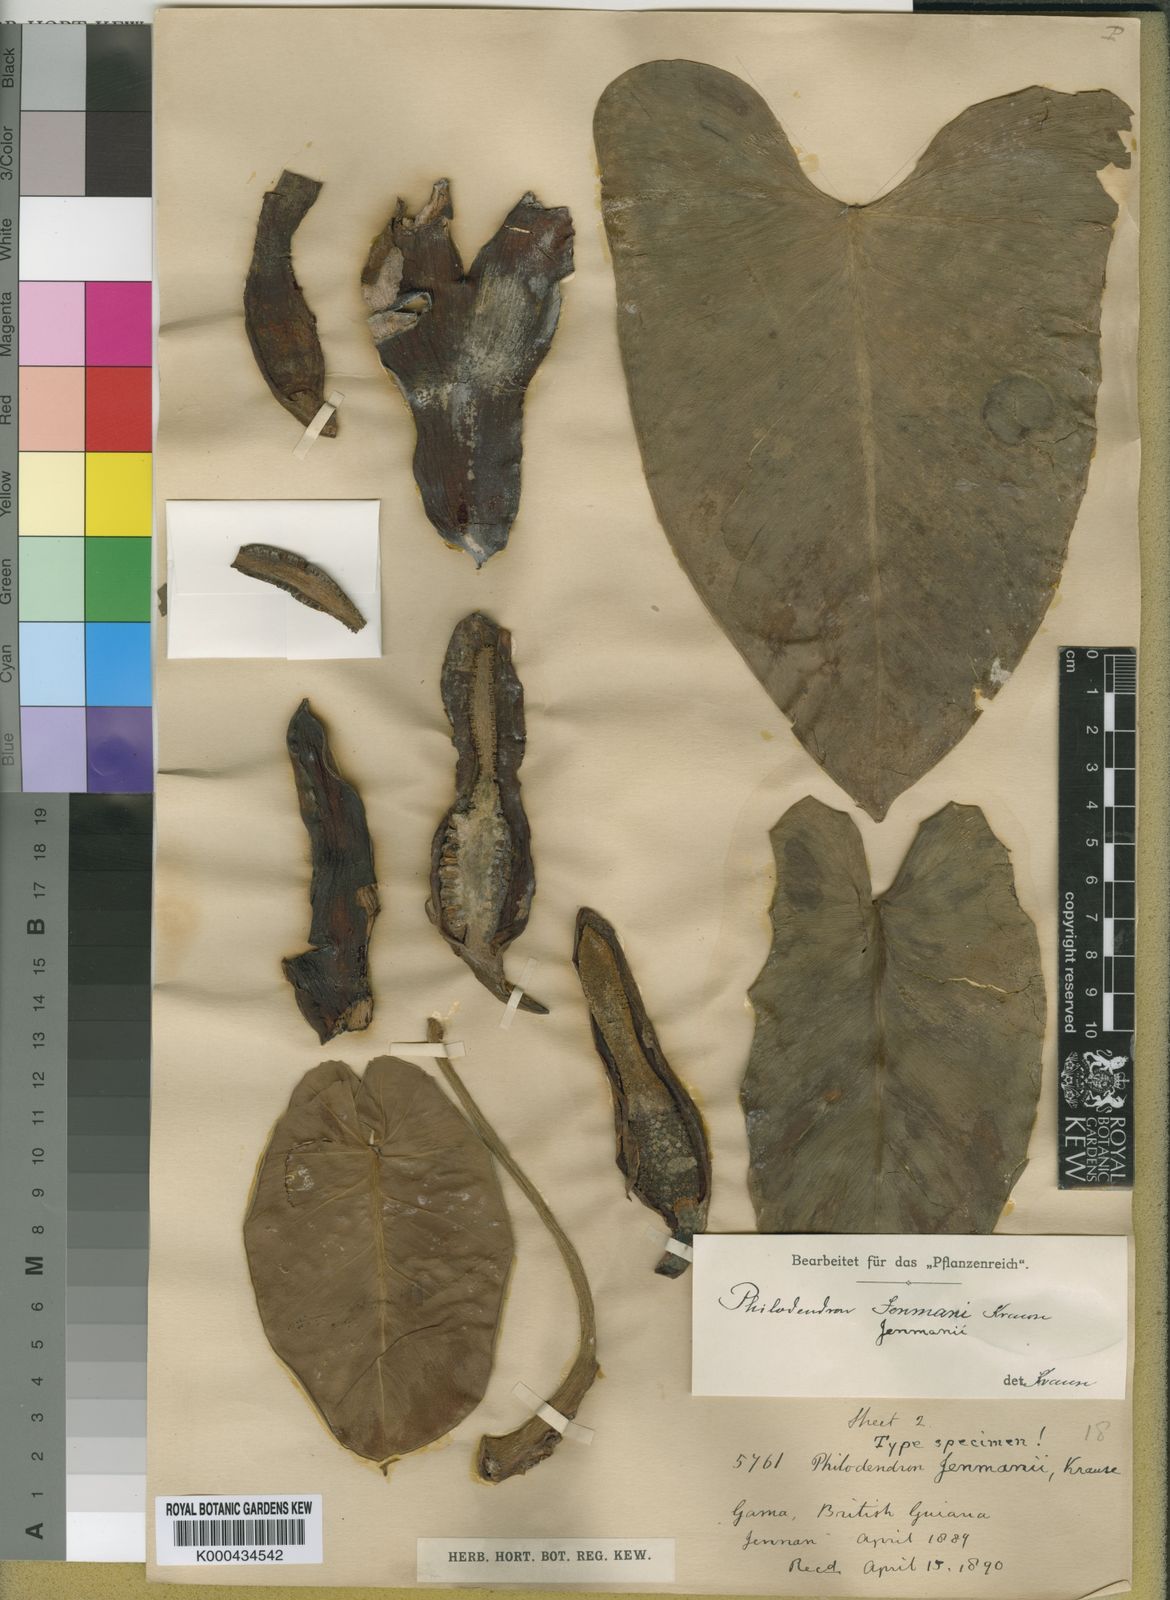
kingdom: Plantae
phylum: Tracheophyta
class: Liliopsida
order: Alismatales
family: Araceae
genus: Philodendron
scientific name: Philodendron muricatum
